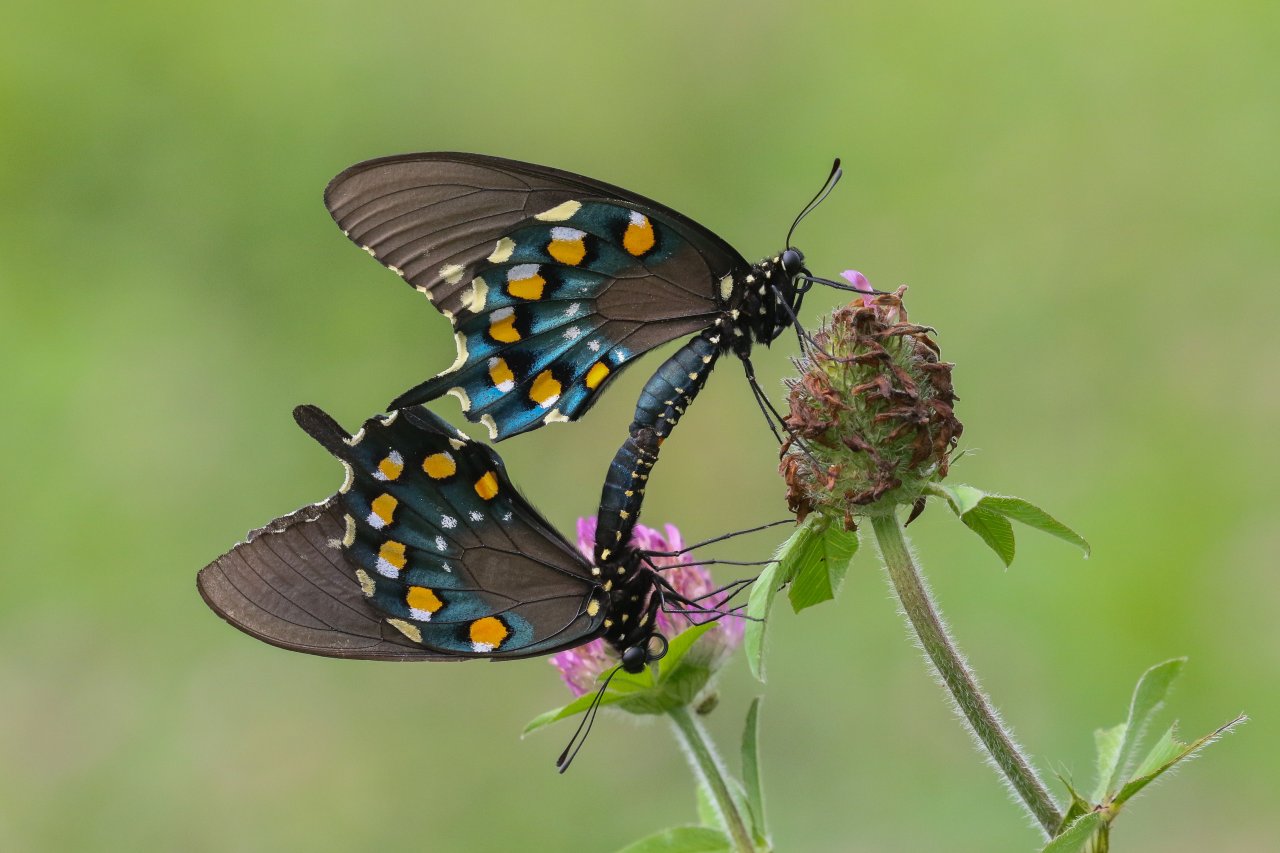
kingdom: Animalia
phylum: Arthropoda
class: Insecta
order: Lepidoptera
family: Papilionidae
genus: Battus
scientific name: Battus philenor
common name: Pipevine Swallowtail
